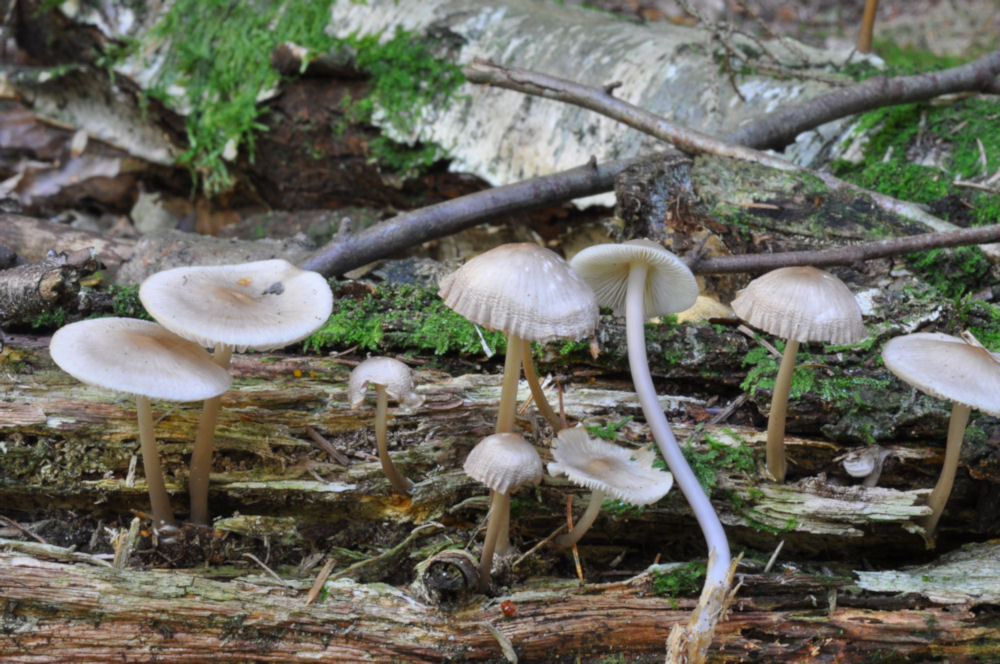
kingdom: Fungi
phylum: Basidiomycota
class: Agaricomycetes
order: Agaricales
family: Mycenaceae
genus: Mycena
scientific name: Mycena galericulata
